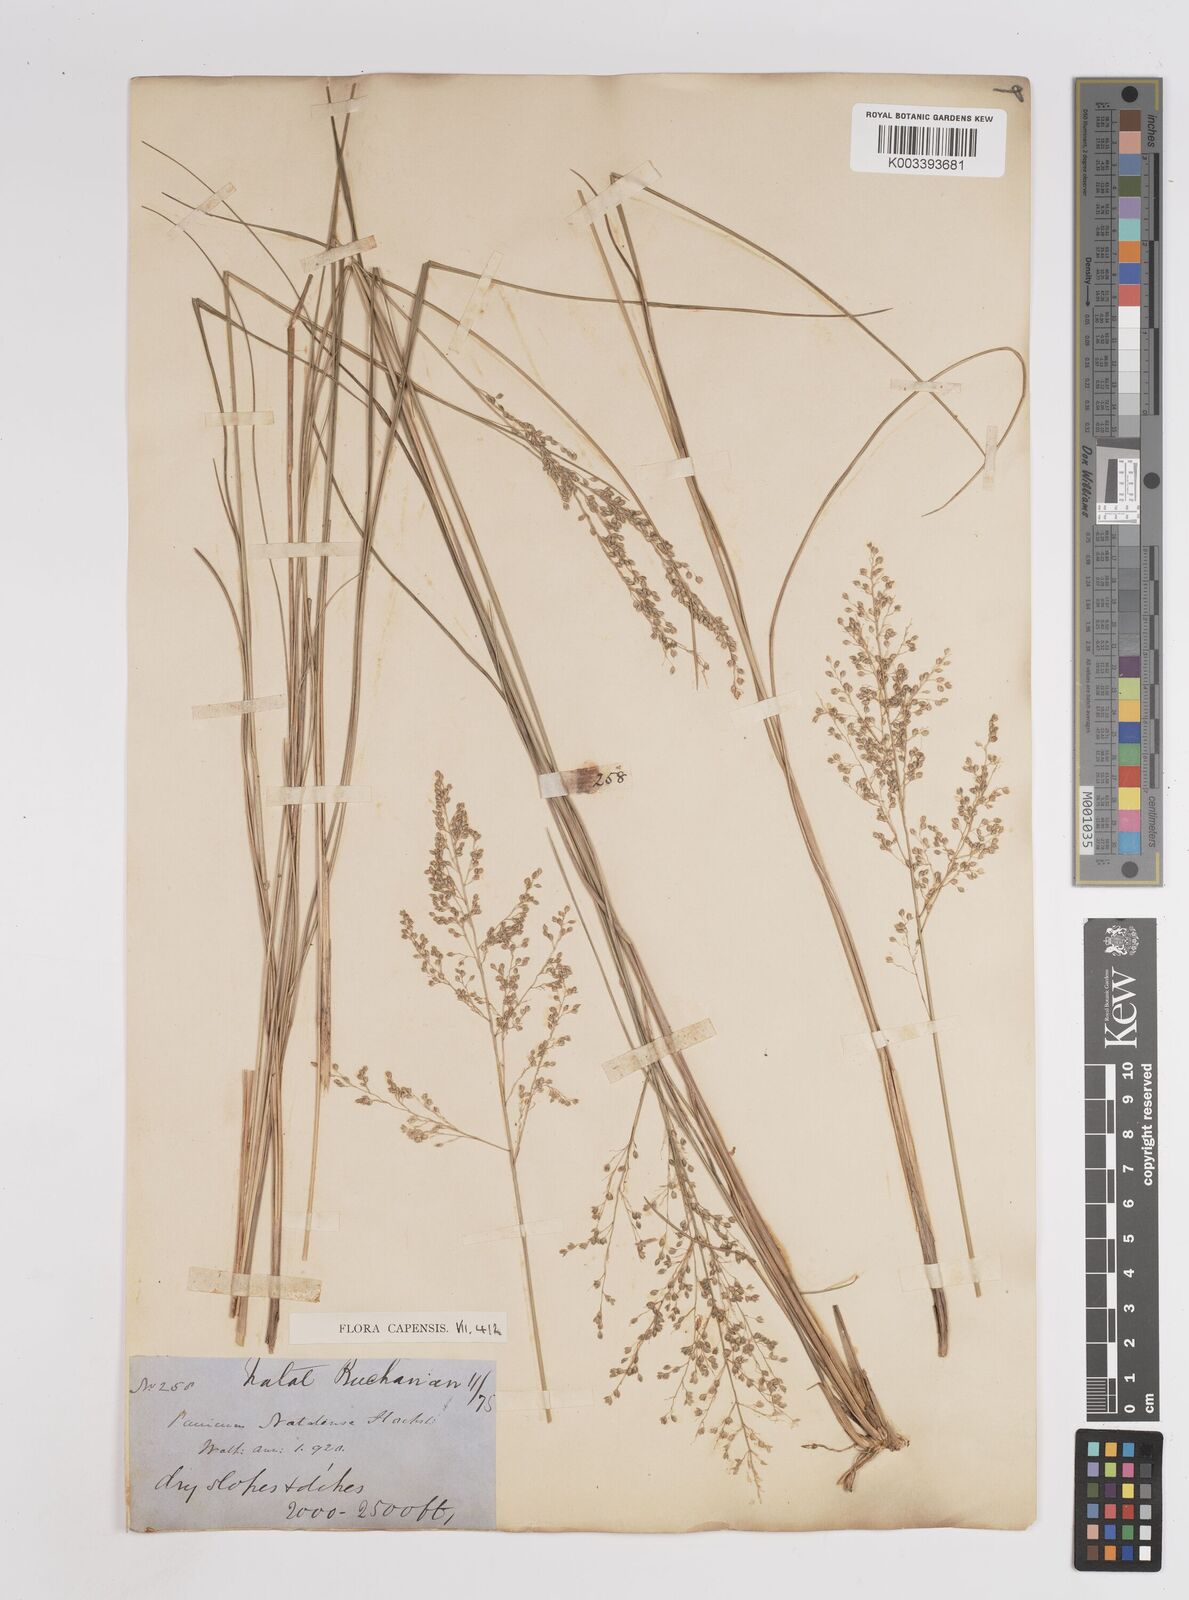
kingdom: Plantae
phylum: Tracheophyta
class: Liliopsida
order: Poales
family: Poaceae
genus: Trichanthecium
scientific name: Trichanthecium natalense
